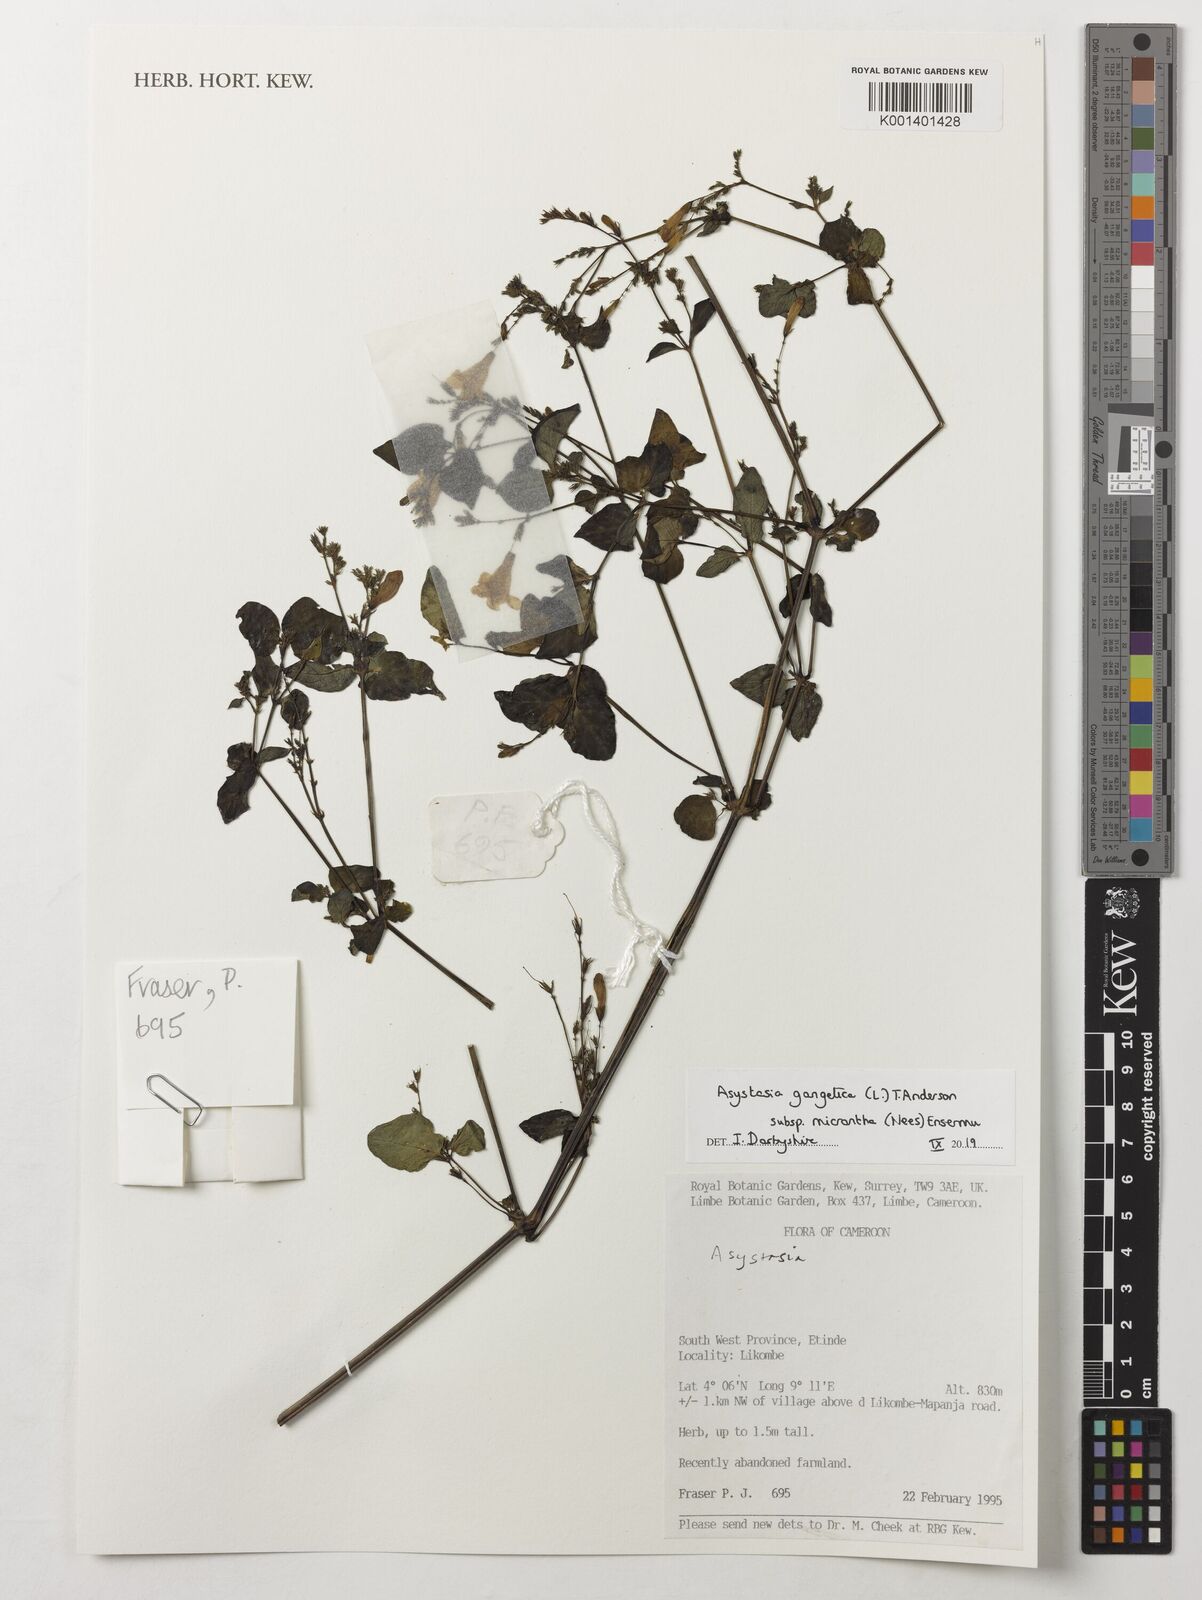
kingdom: Plantae
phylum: Tracheophyta
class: Magnoliopsida
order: Lamiales
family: Acanthaceae
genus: Asystasia
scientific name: Asystasia gangetica
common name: Chinese violet
